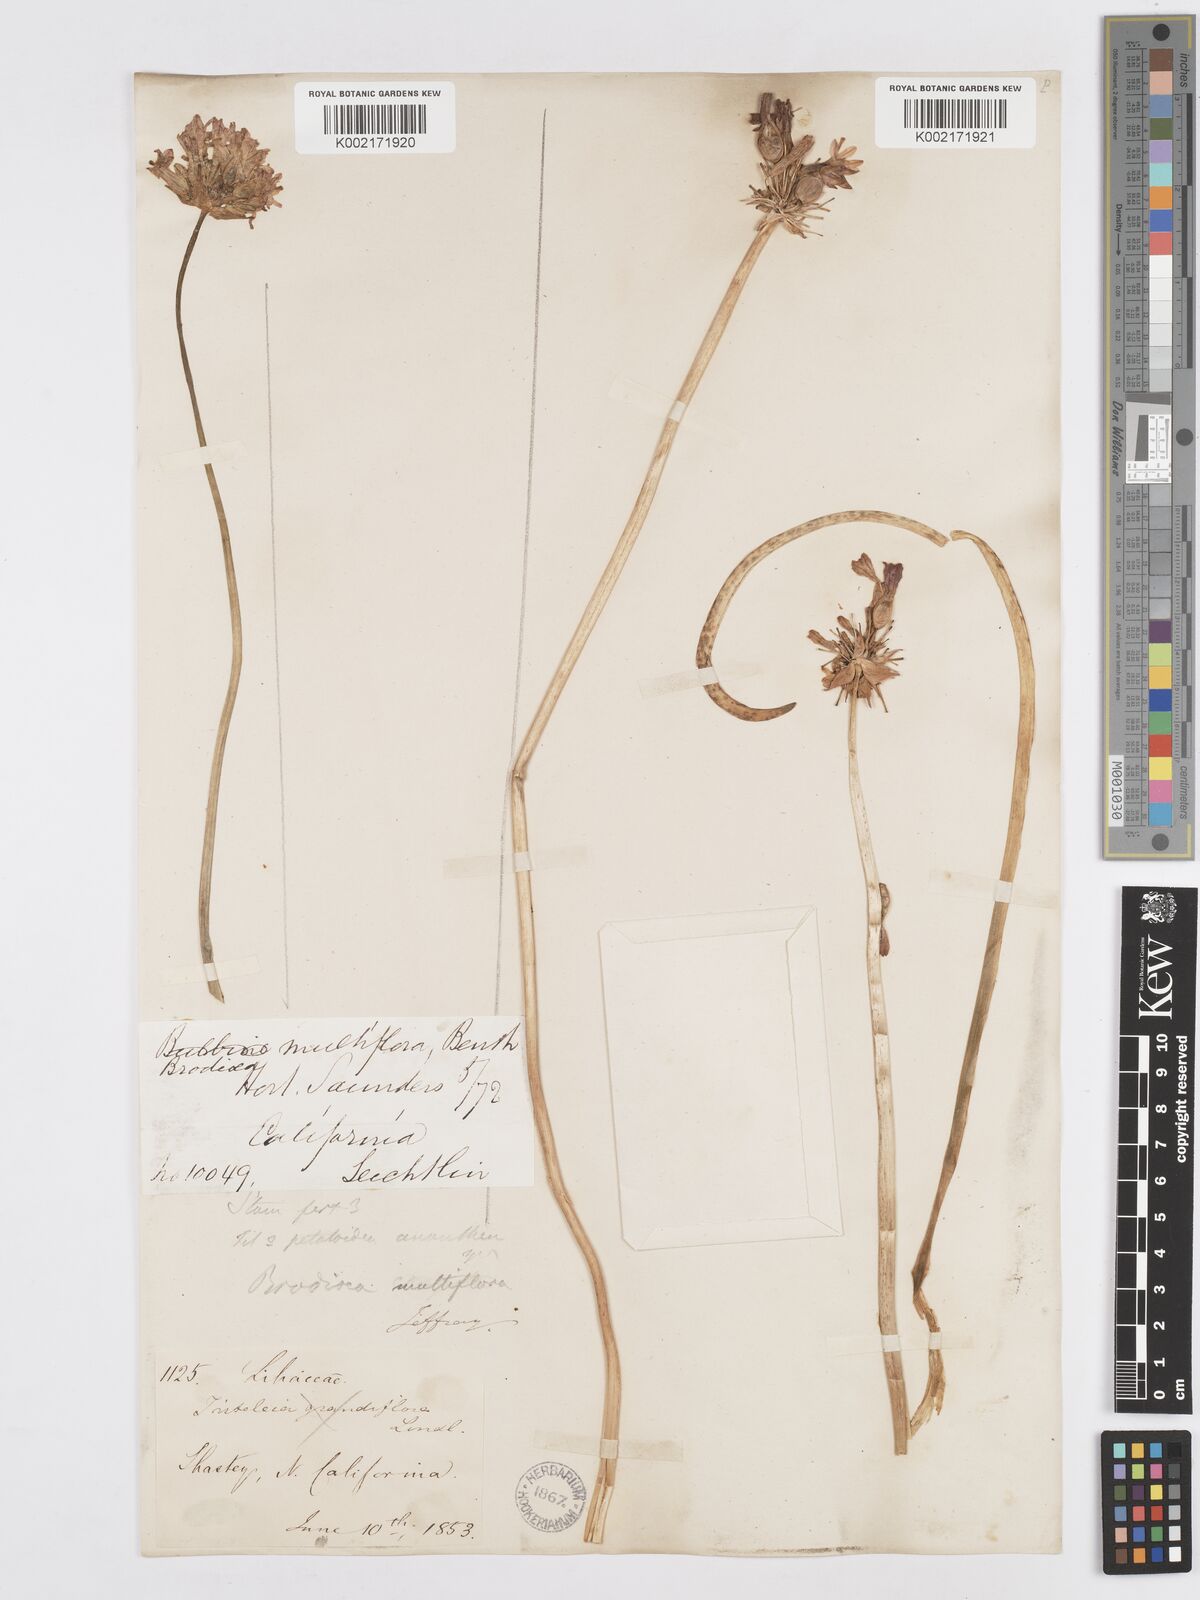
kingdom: Plantae
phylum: Tracheophyta
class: Liliopsida
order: Asparagales
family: Asparagaceae
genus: Dichelostemma
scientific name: Dichelostemma multiflorum
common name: Round-tooth ookow
